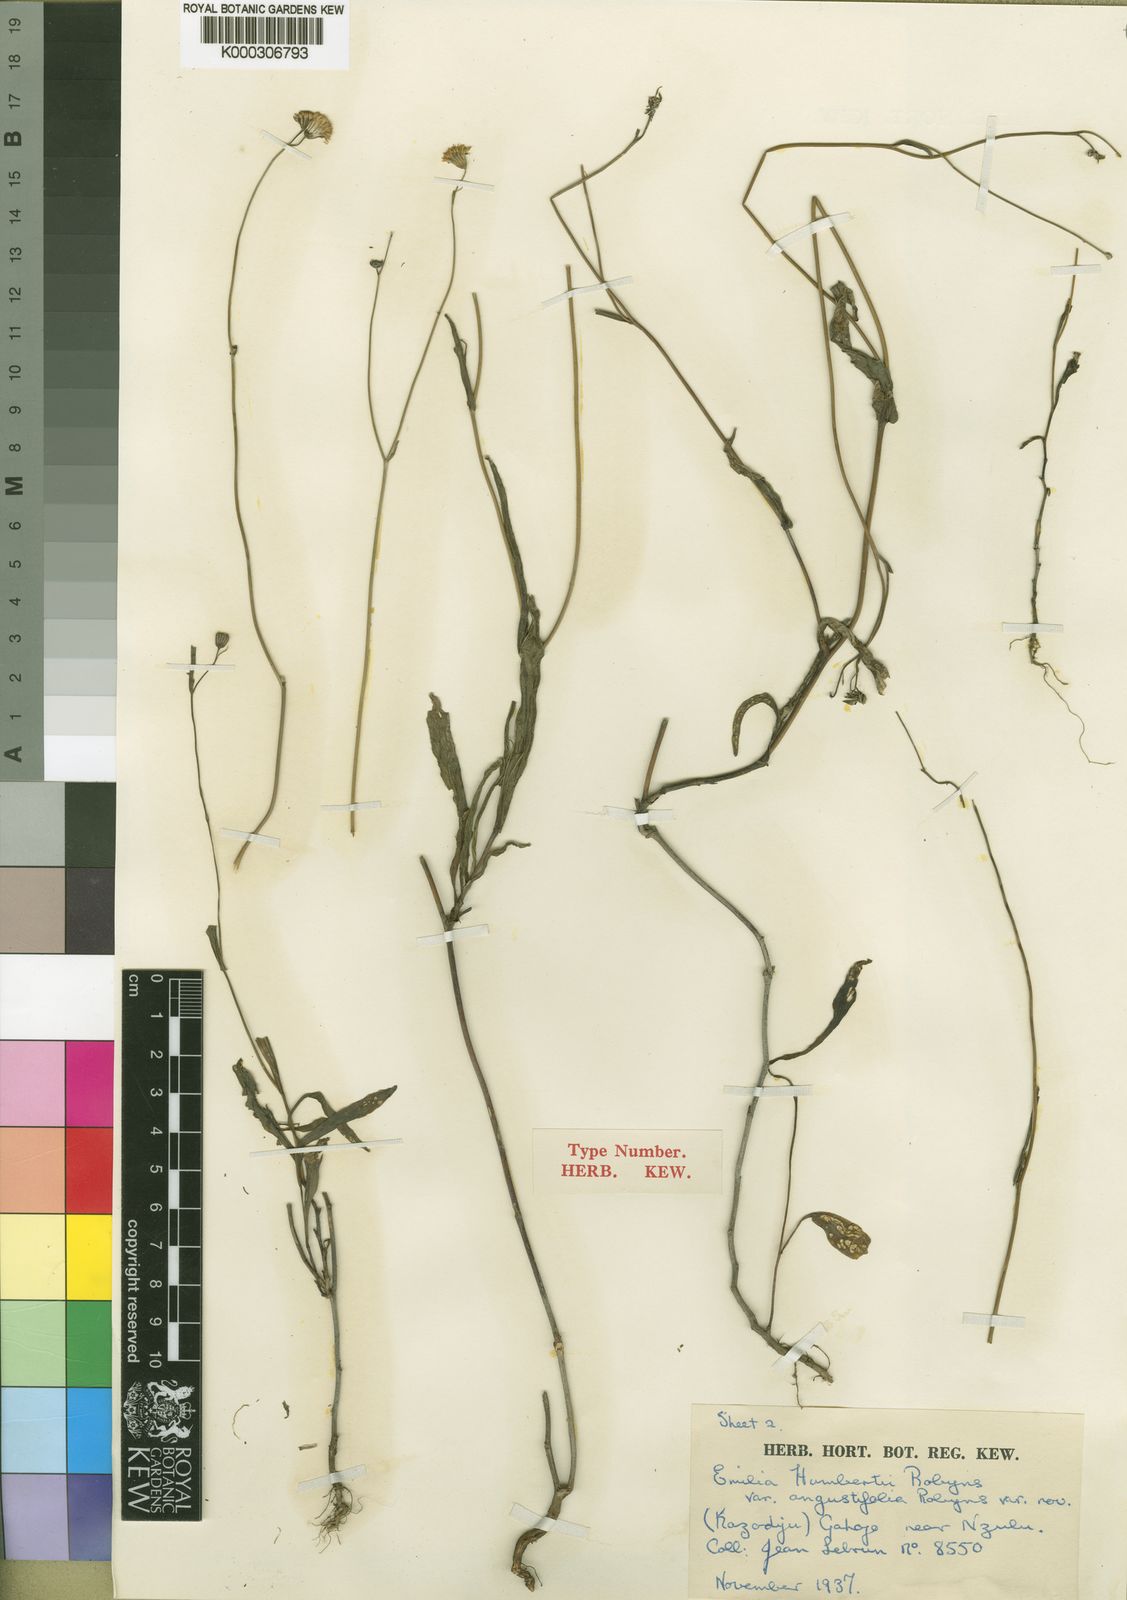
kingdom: Plantae
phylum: Tracheophyta
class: Magnoliopsida
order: Asterales
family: Asteraceae
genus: Emilia
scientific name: Emilia coccinea
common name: Scarlet tasselflower
